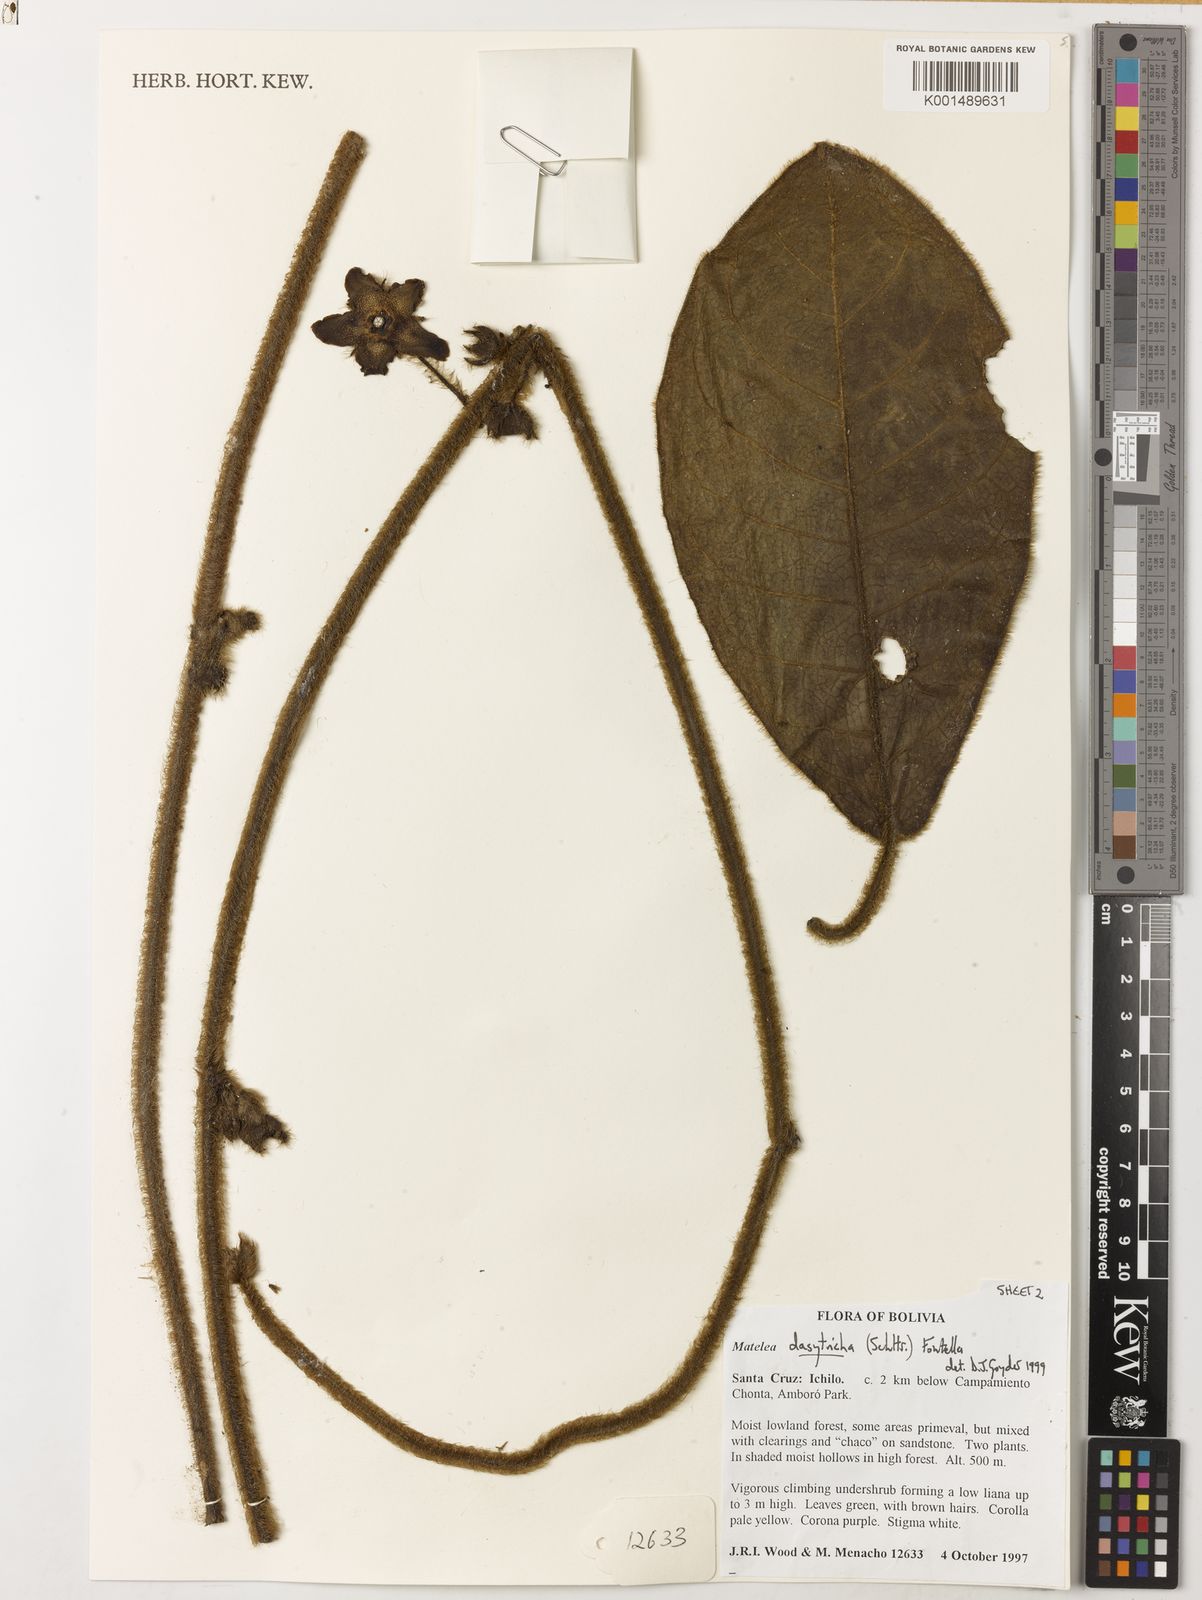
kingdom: Plantae
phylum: Tracheophyta
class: Magnoliopsida
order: Gentianales
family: Apocynaceae
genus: Pruskortizia
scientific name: Pruskortizia dasytricha
